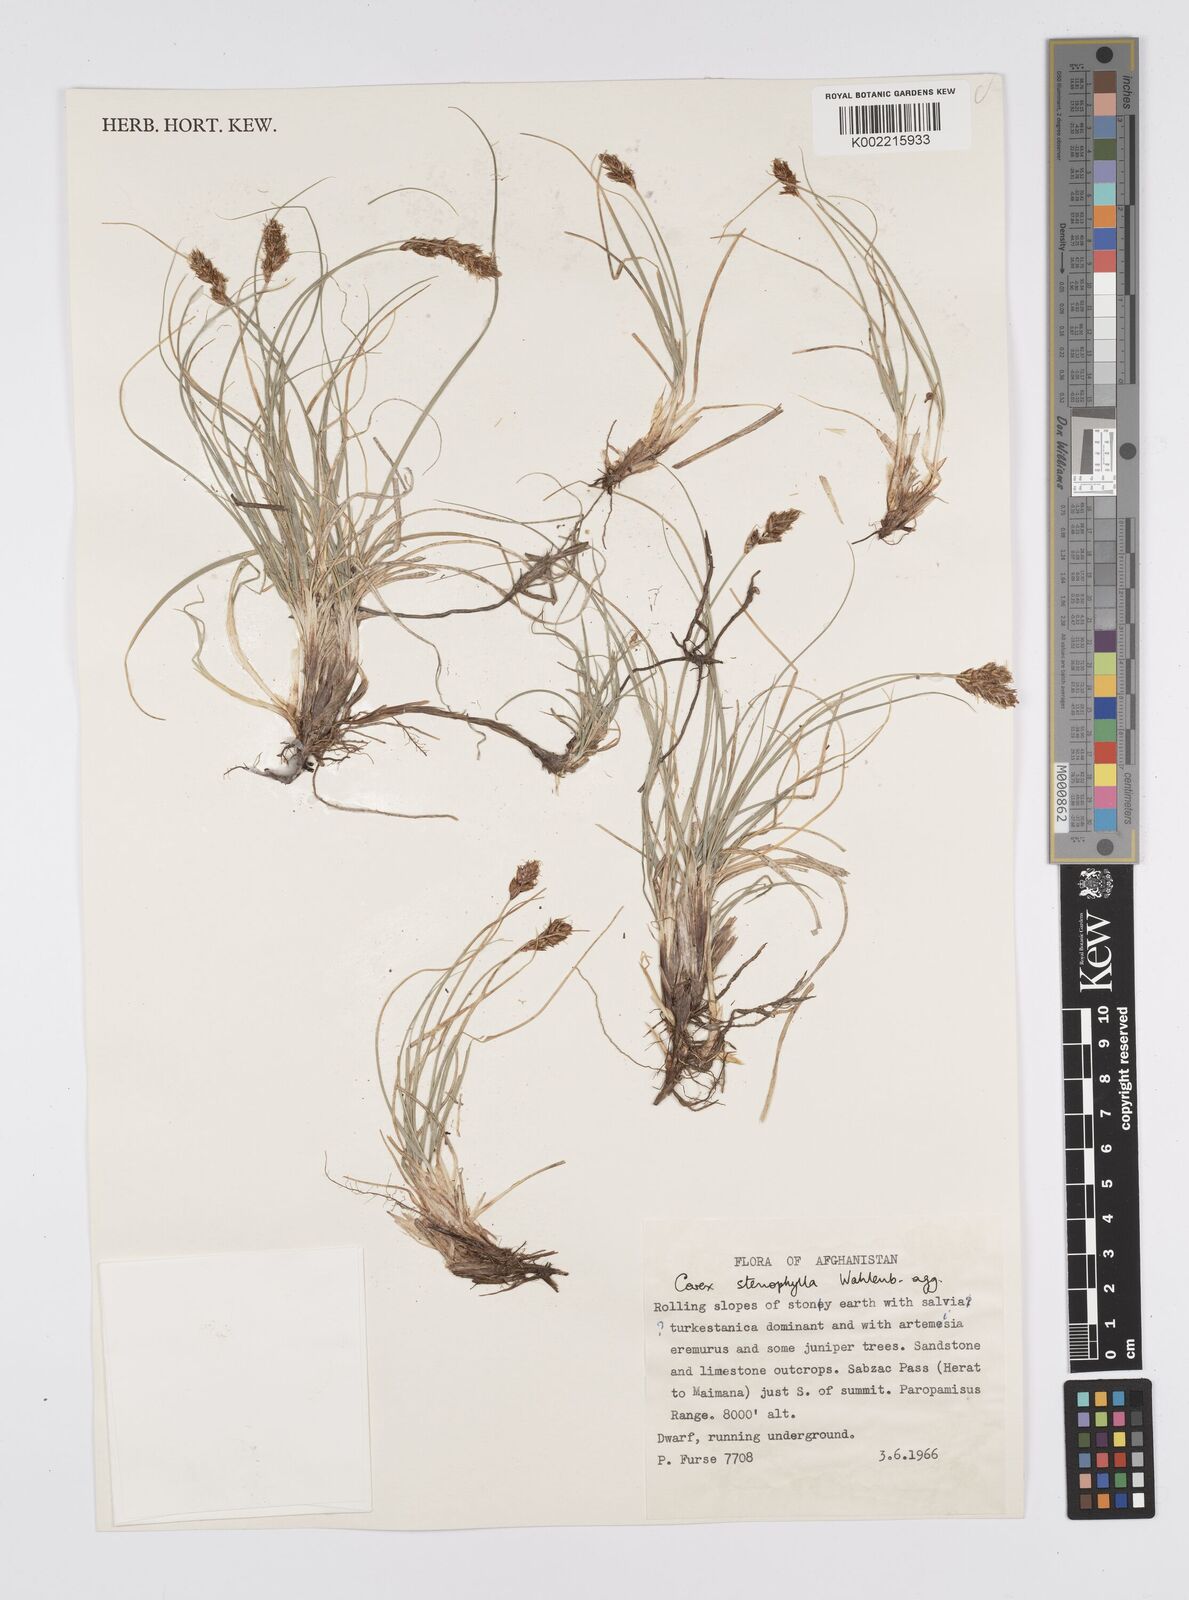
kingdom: Plantae
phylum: Tracheophyta
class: Liliopsida
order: Poales
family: Cyperaceae
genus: Carex
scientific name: Carex stenophylla
